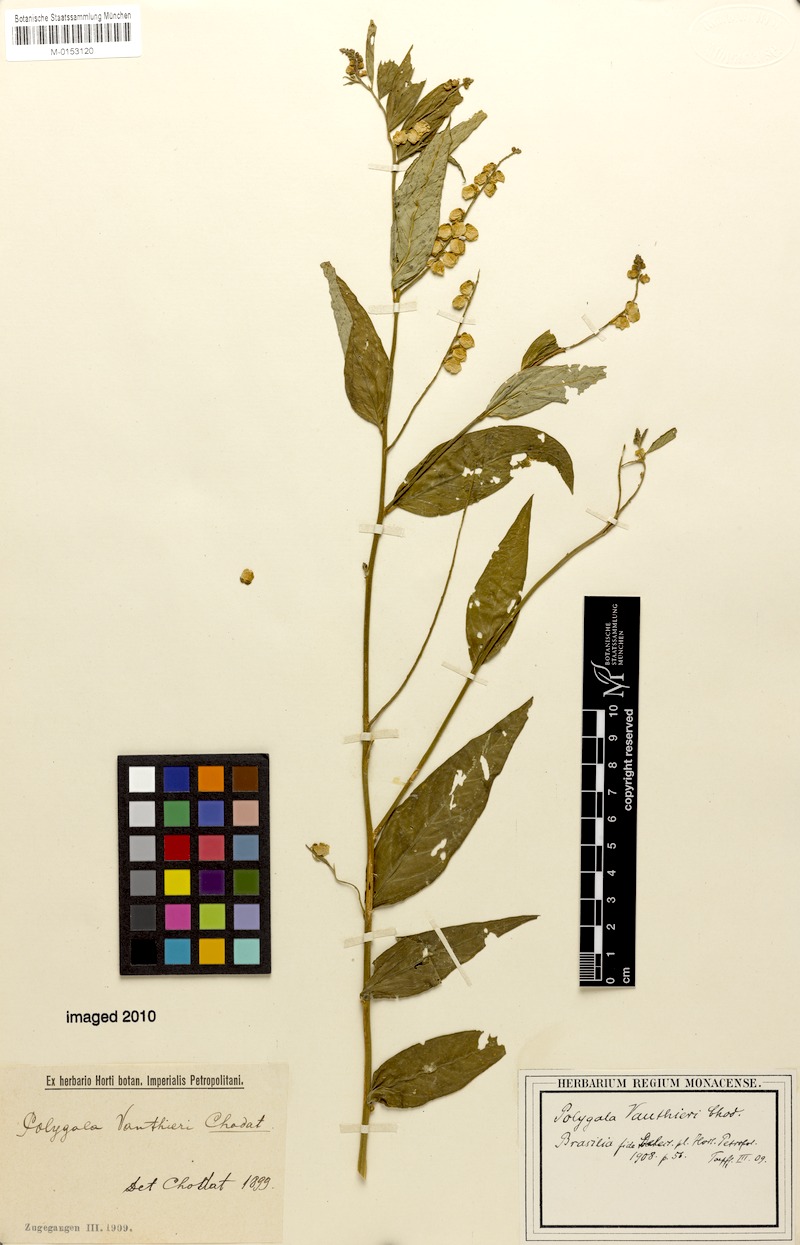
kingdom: Plantae
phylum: Tracheophyta
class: Magnoliopsida
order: Fabales
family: Polygalaceae
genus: Asemeia
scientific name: Asemeia acuminata
